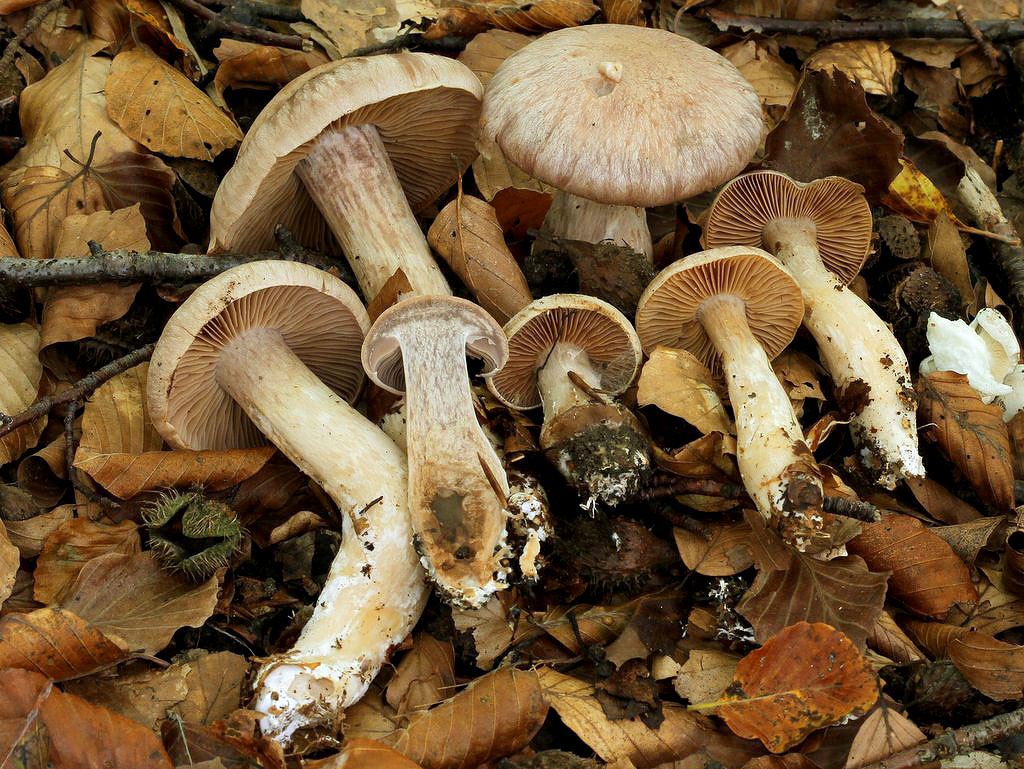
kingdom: Fungi
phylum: Basidiomycota
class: Agaricomycetes
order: Agaricales
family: Cortinariaceae
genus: Cortinarius
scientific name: Cortinarius caesioarmeniacus
